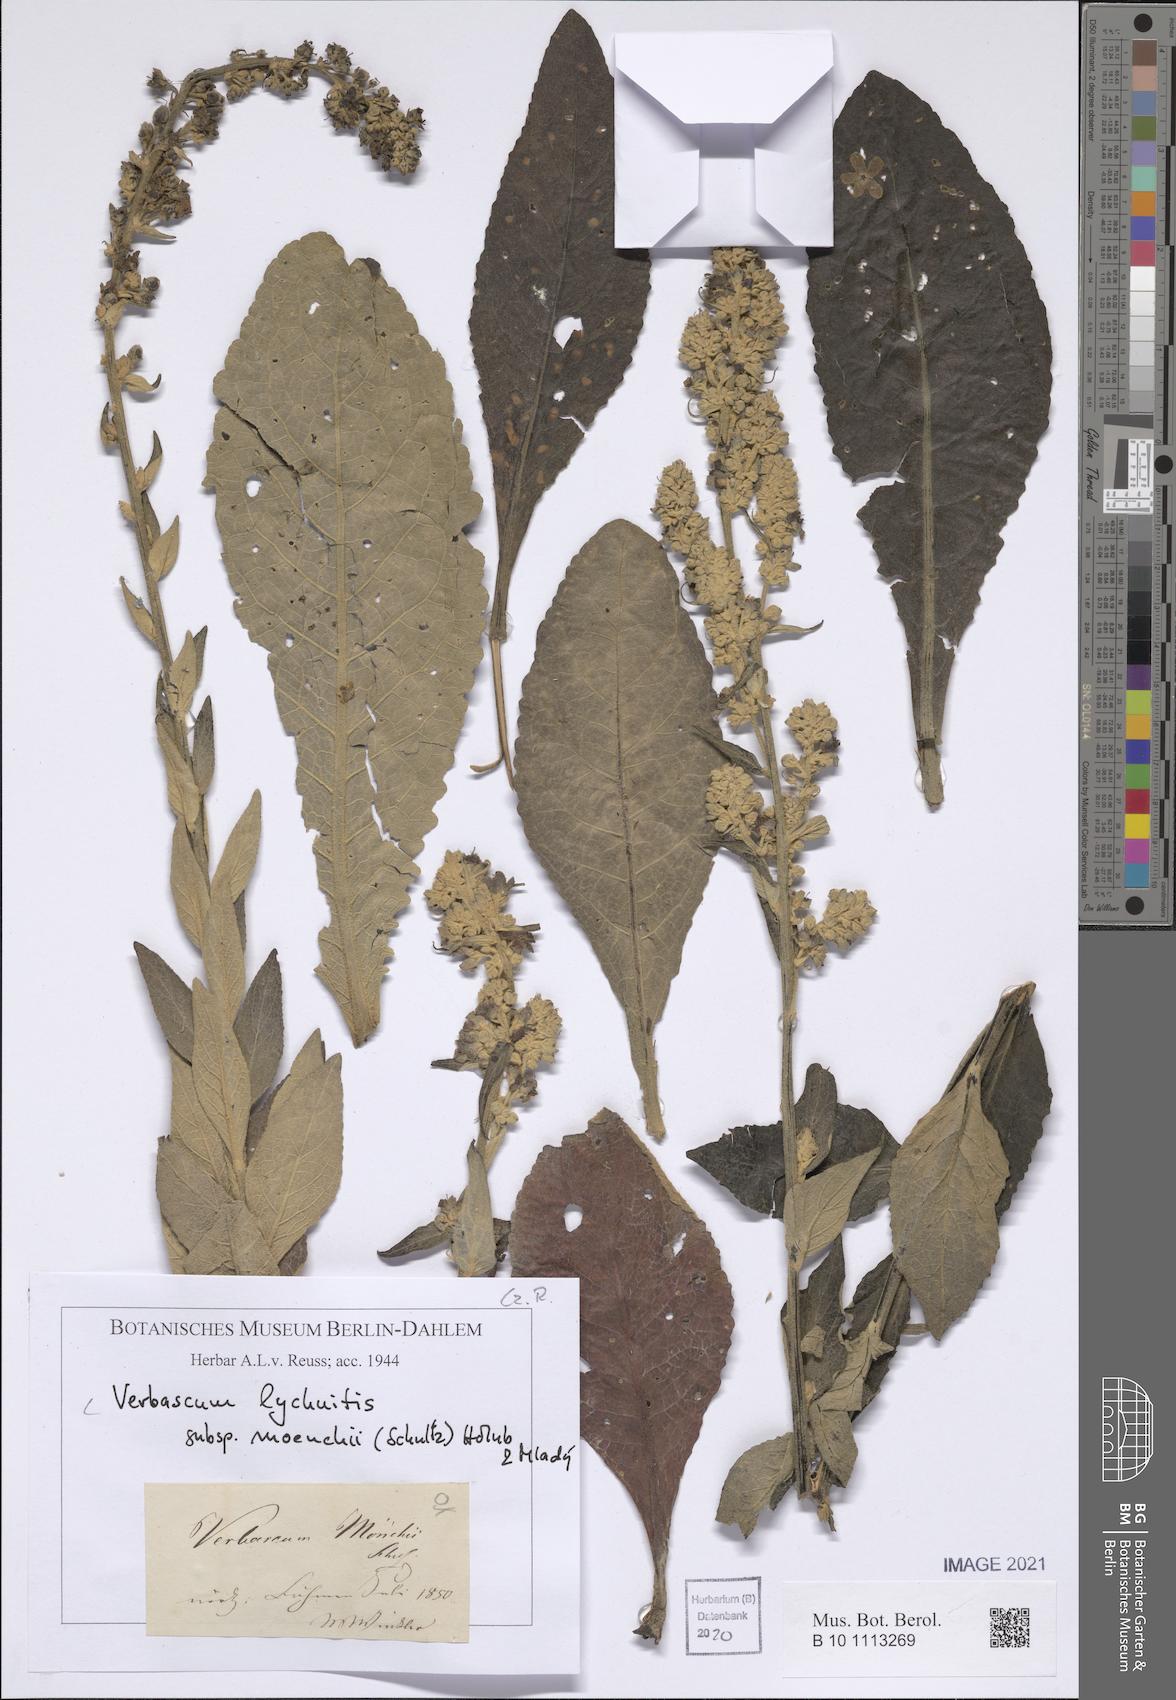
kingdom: Plantae
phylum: Tracheophyta
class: Magnoliopsida
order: Lamiales
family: Scrophulariaceae
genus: Verbascum
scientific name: Verbascum lychnitis
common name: White mullein
